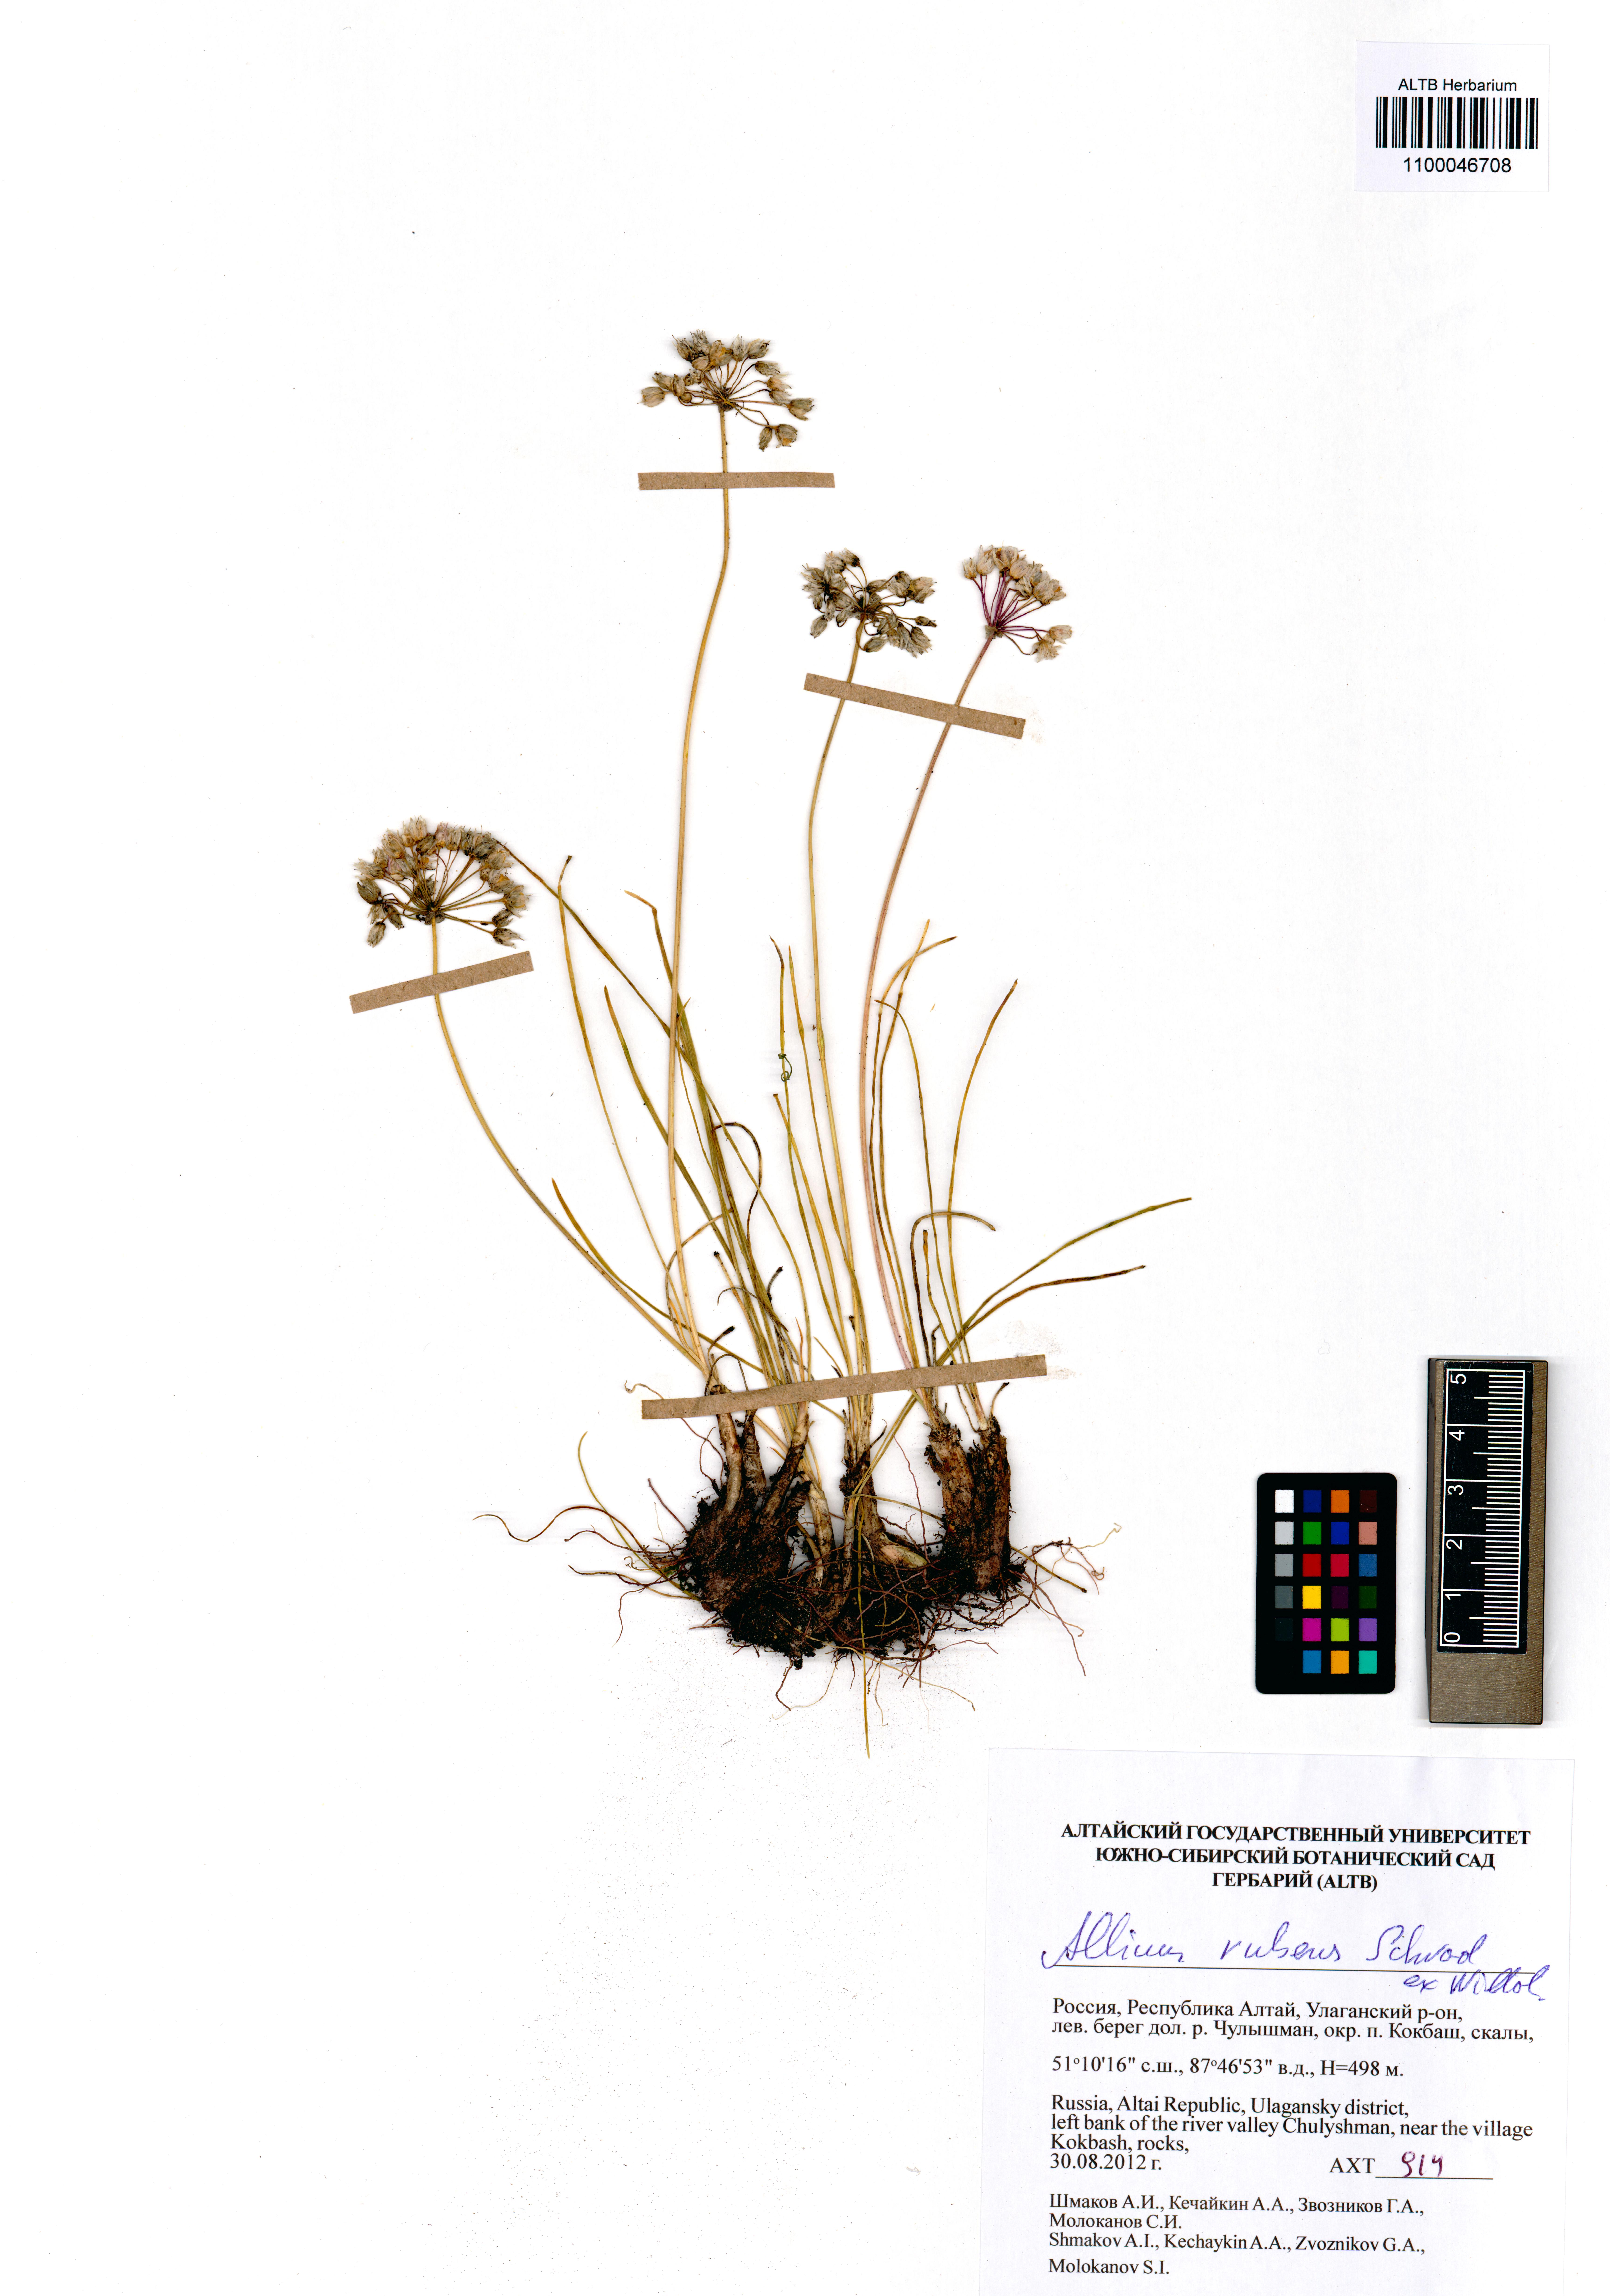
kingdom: Plantae
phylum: Tracheophyta
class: Liliopsida
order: Asparagales
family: Amaryllidaceae
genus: Allium
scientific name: Allium rubens
